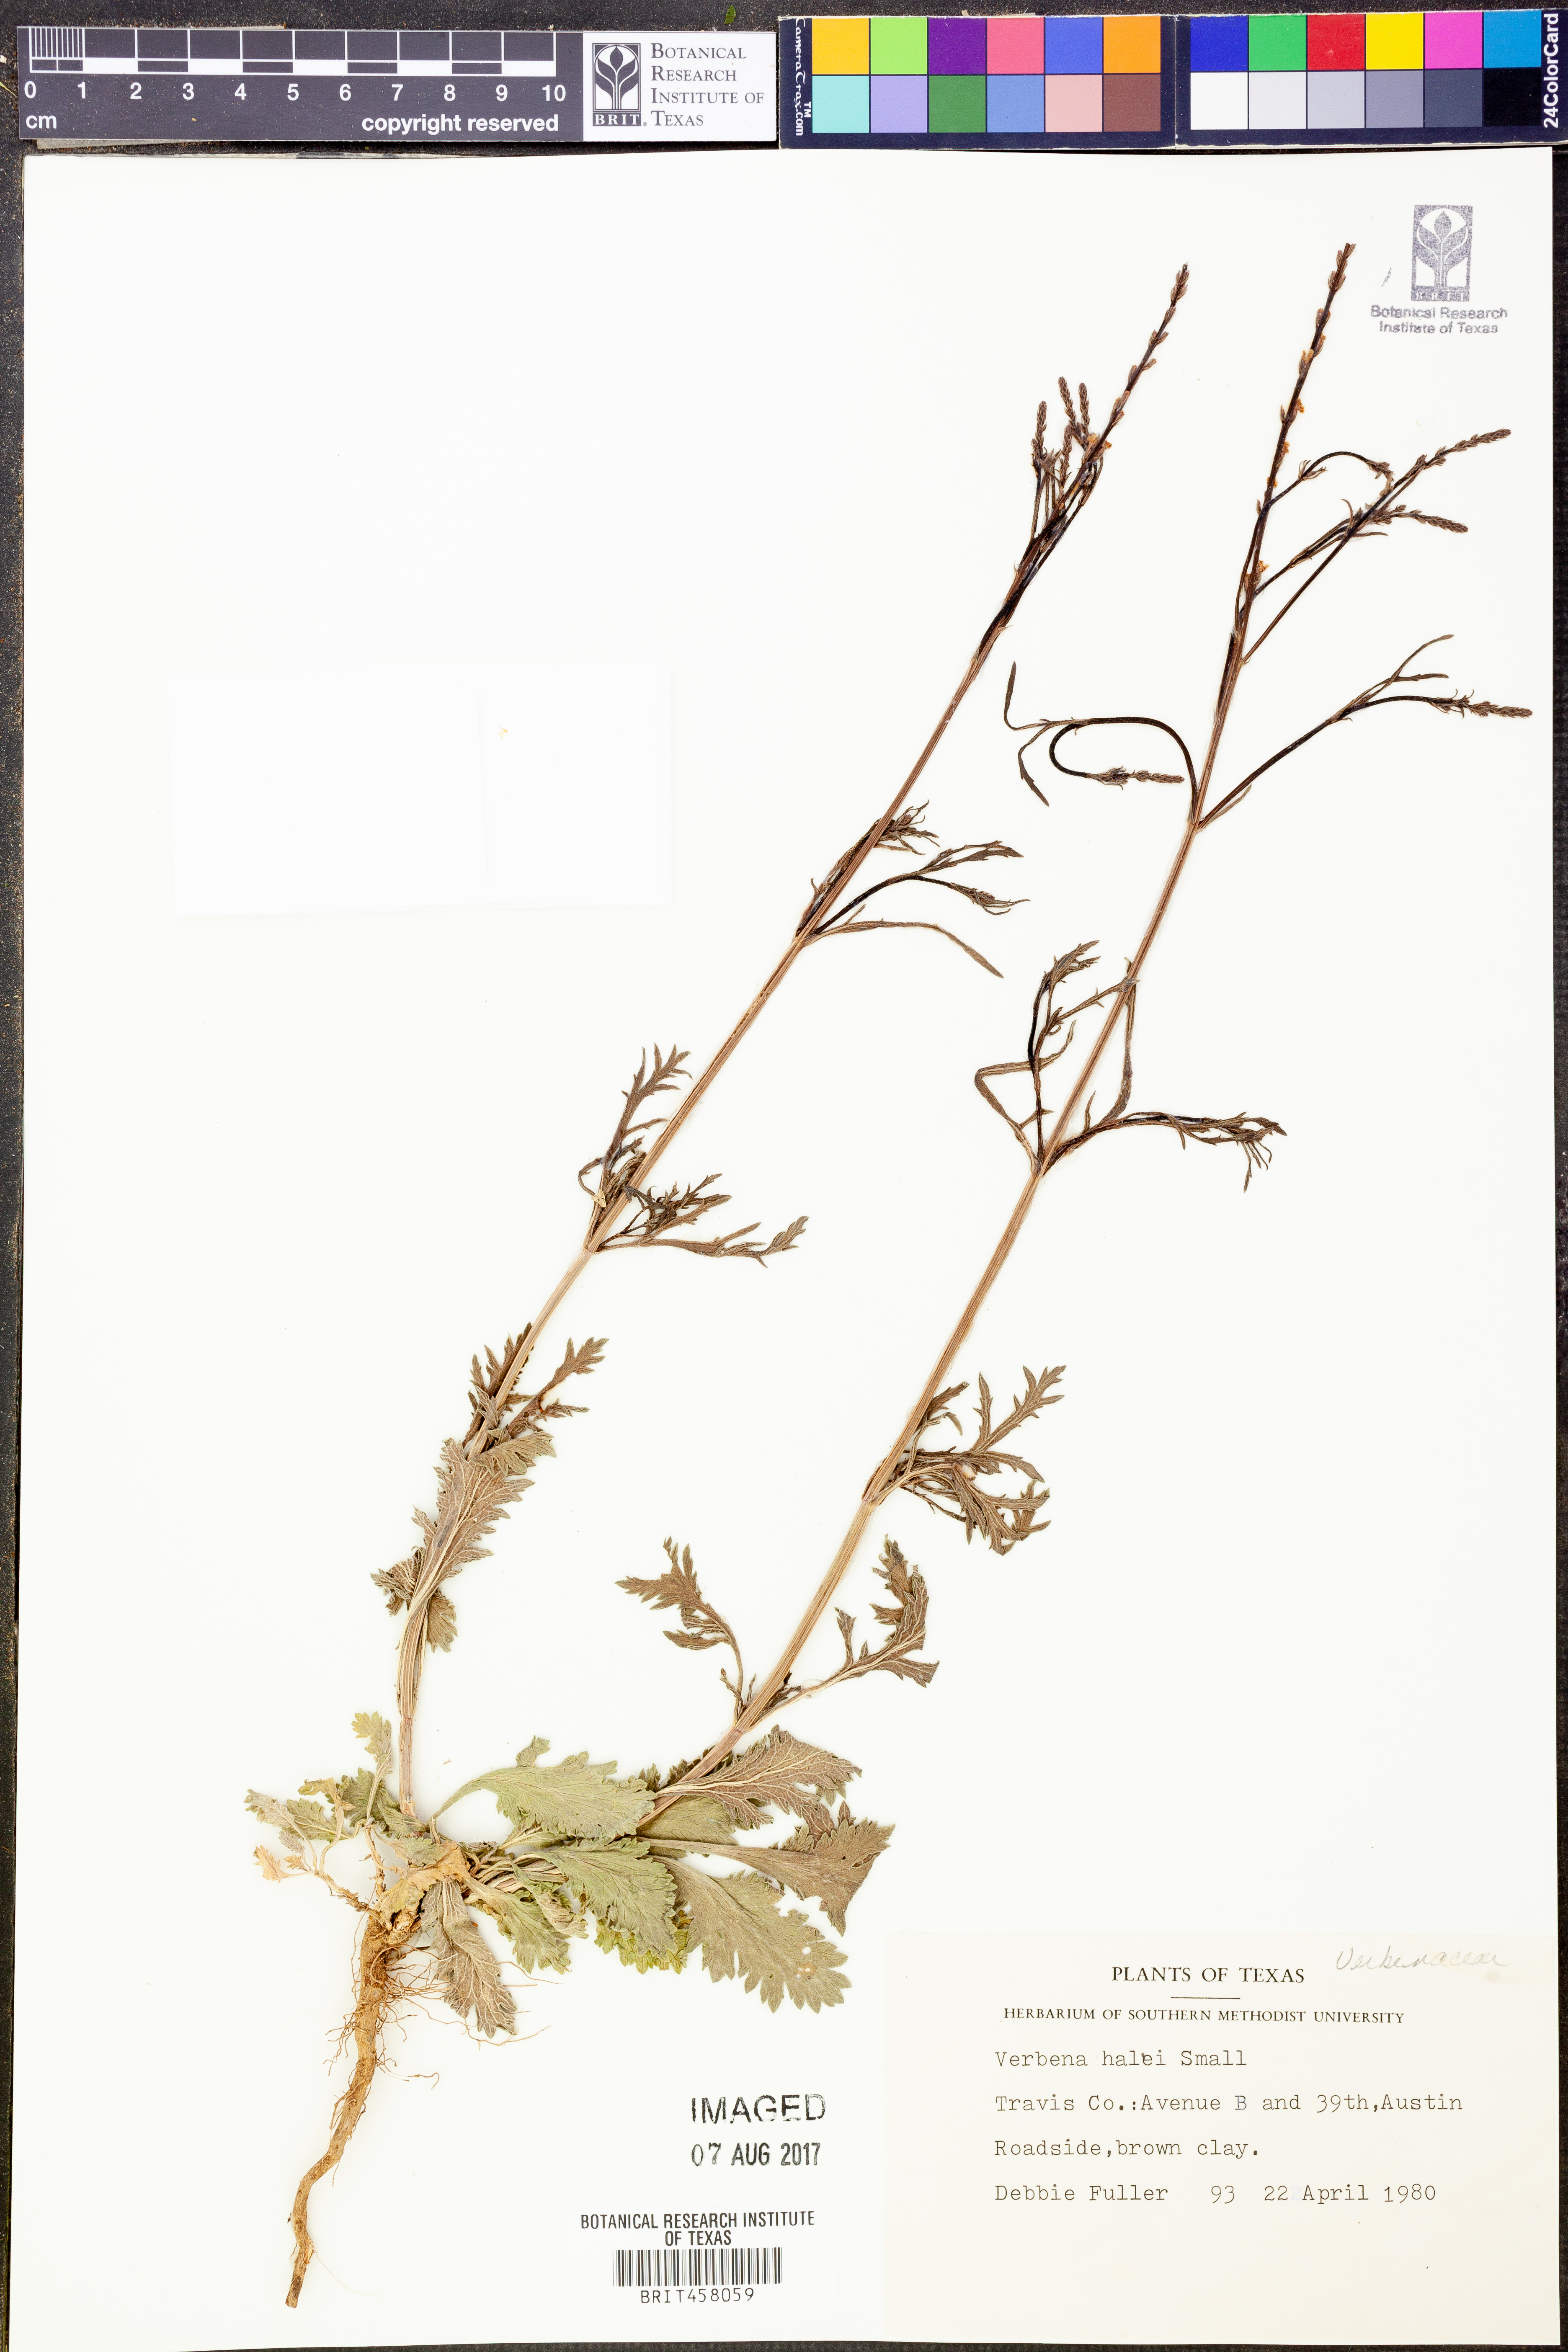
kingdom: Plantae
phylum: Tracheophyta
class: Magnoliopsida
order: Lamiales
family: Verbenaceae
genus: Verbena
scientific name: Verbena halei
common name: Texas vervain
